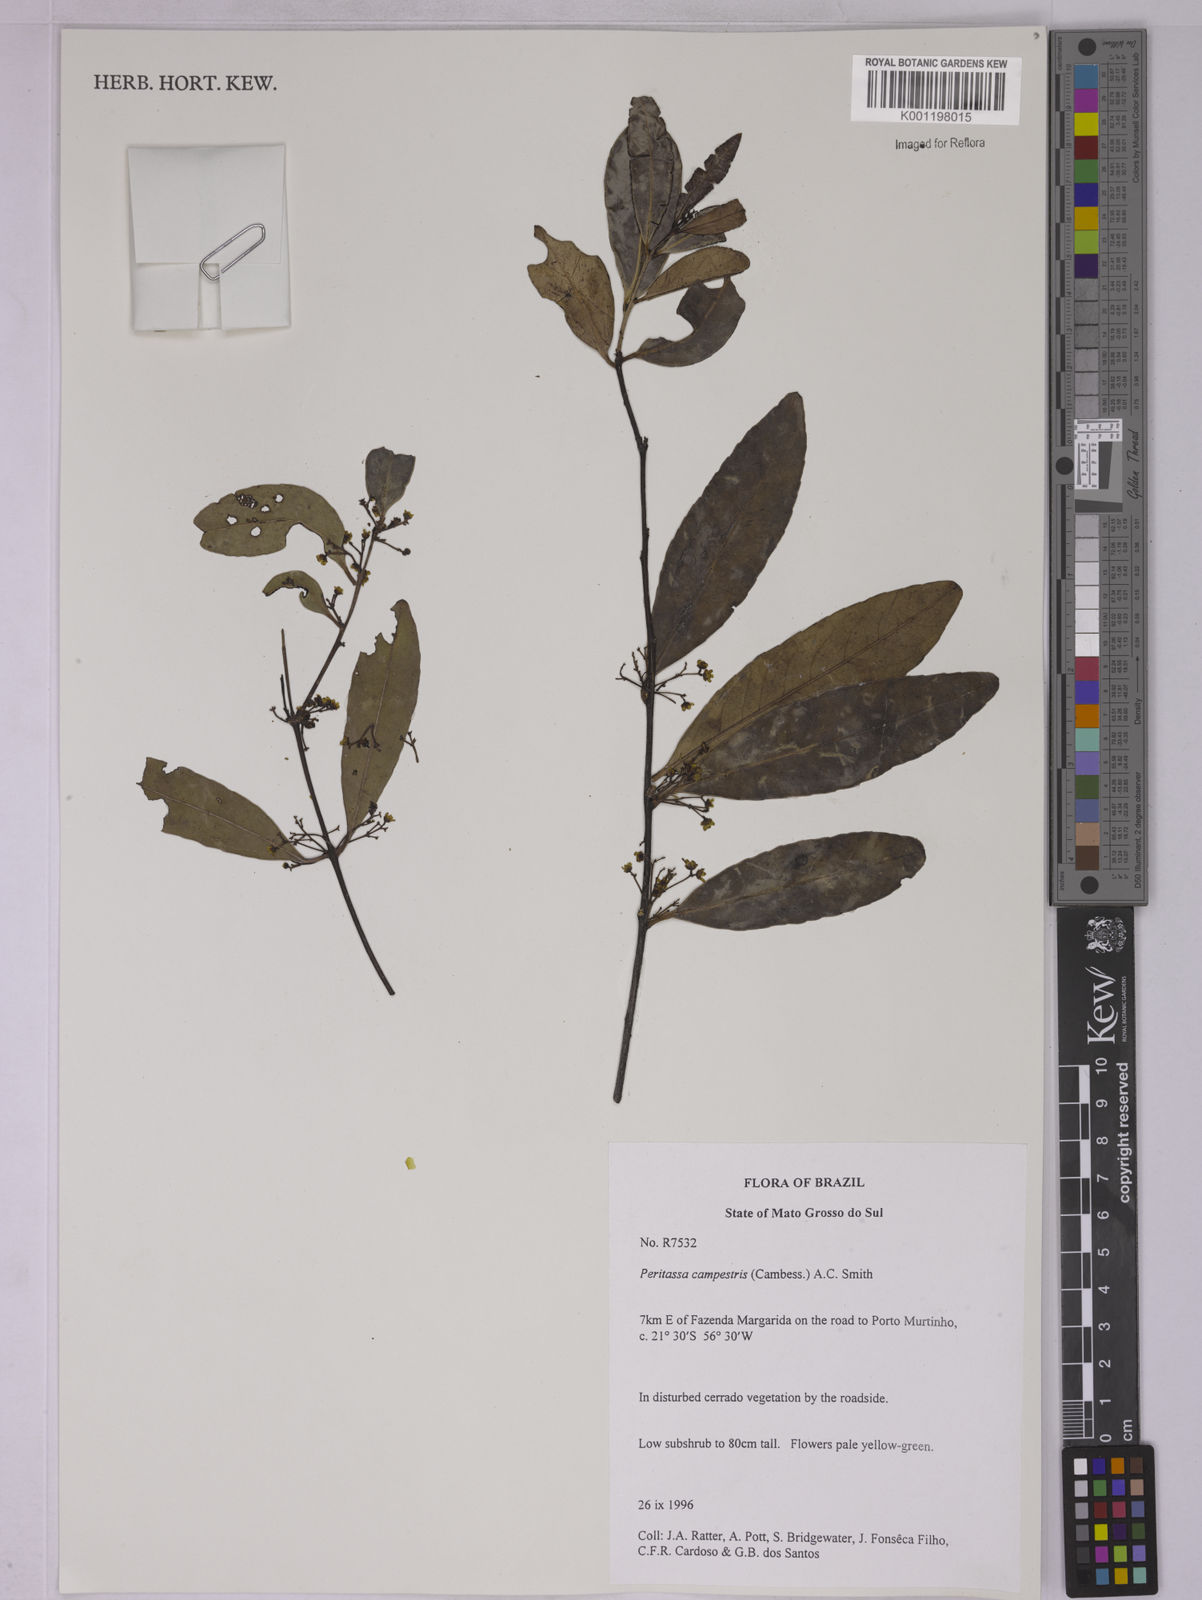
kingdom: Plantae
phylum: Tracheophyta
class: Magnoliopsida
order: Celastrales
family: Celastraceae
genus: Peritassa
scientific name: Peritassa campestris
